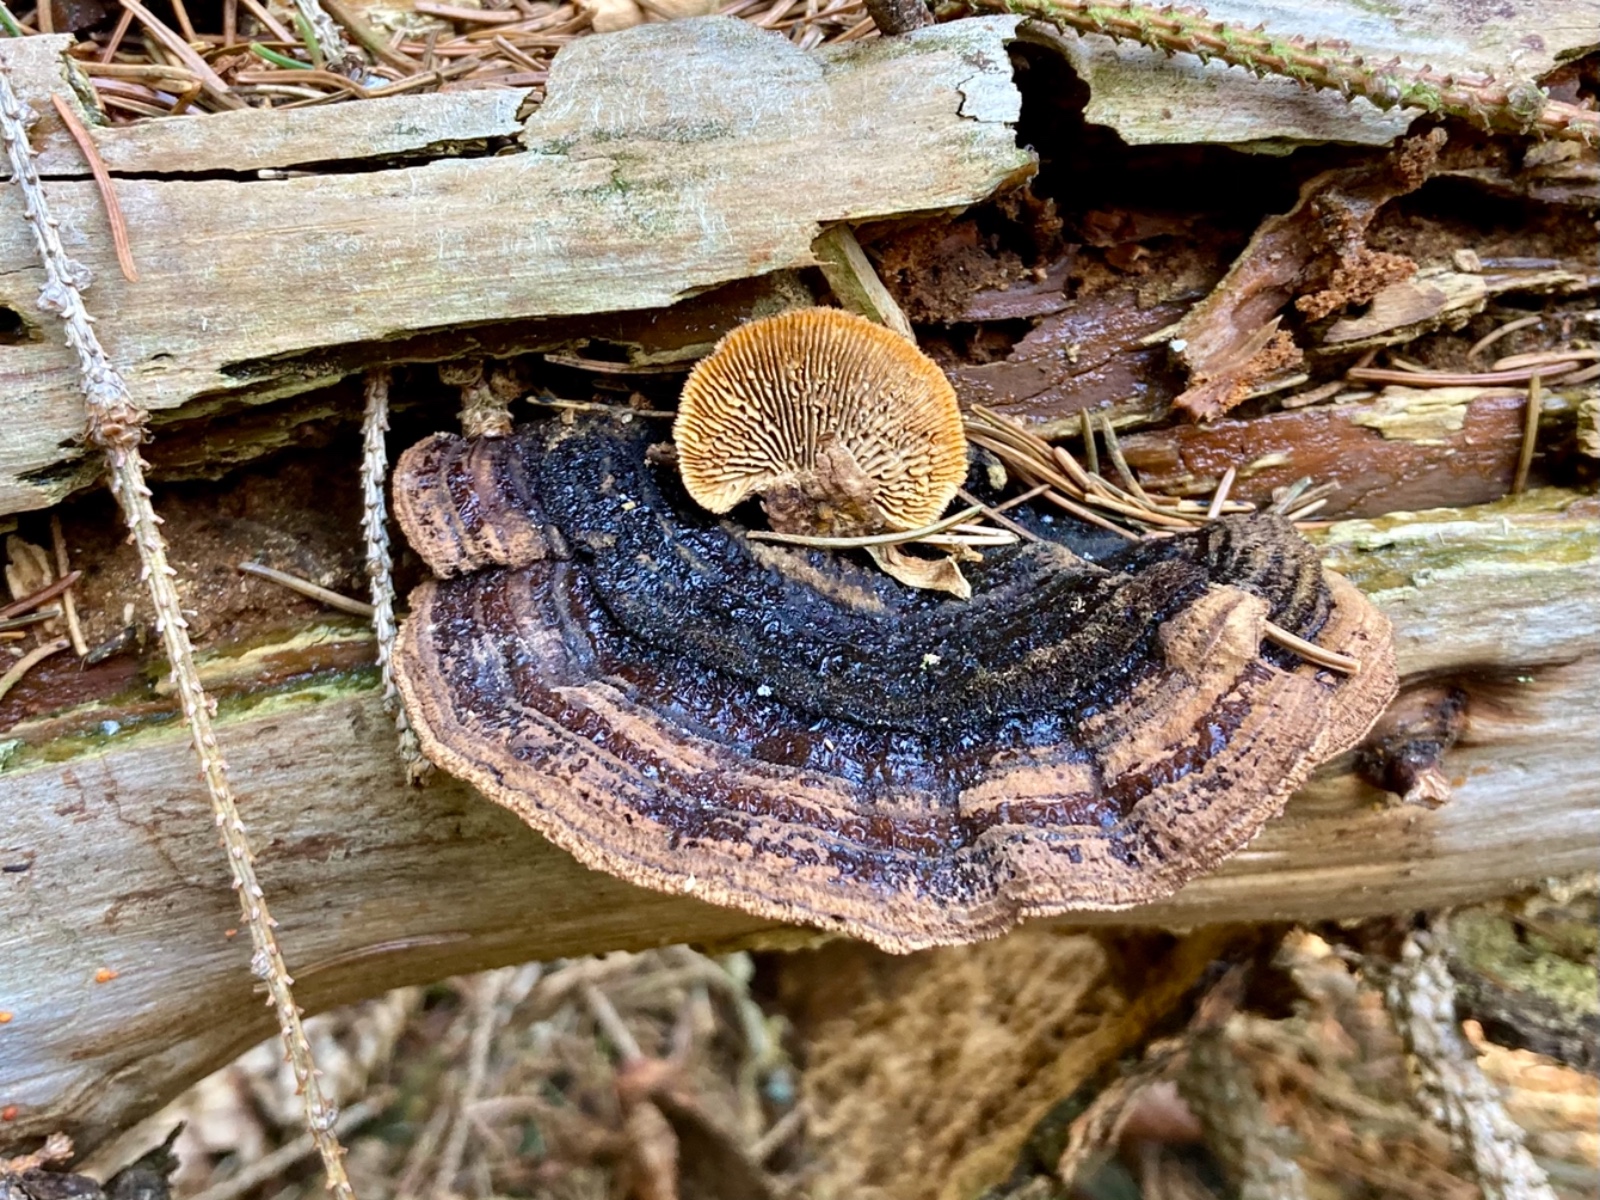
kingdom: Fungi
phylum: Basidiomycota
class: Agaricomycetes
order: Gloeophyllales
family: Gloeophyllaceae
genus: Gloeophyllum
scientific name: Gloeophyllum sepiarium
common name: fyrre-korkhat
